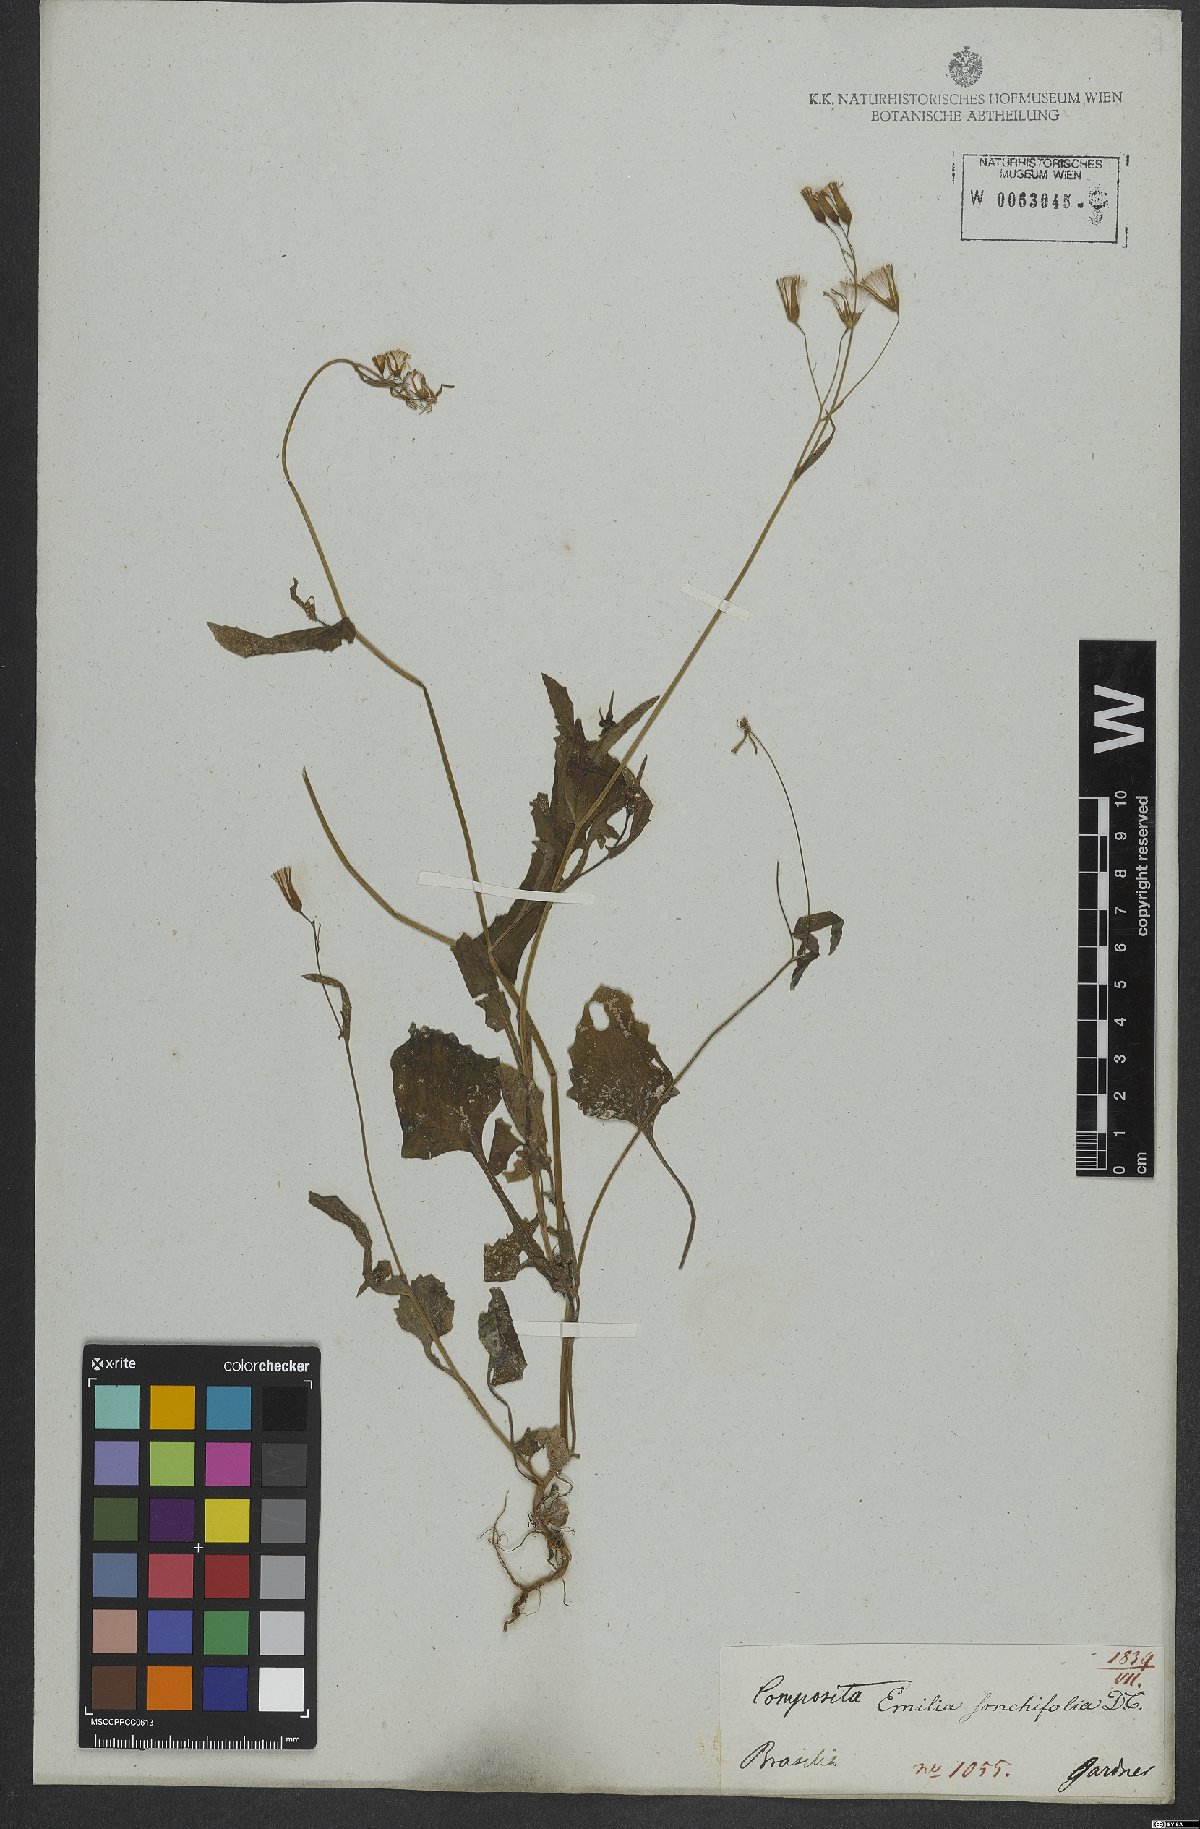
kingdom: Plantae
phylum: Tracheophyta
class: Magnoliopsida
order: Asterales
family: Asteraceae
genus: Emilia
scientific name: Emilia sonchifolia
